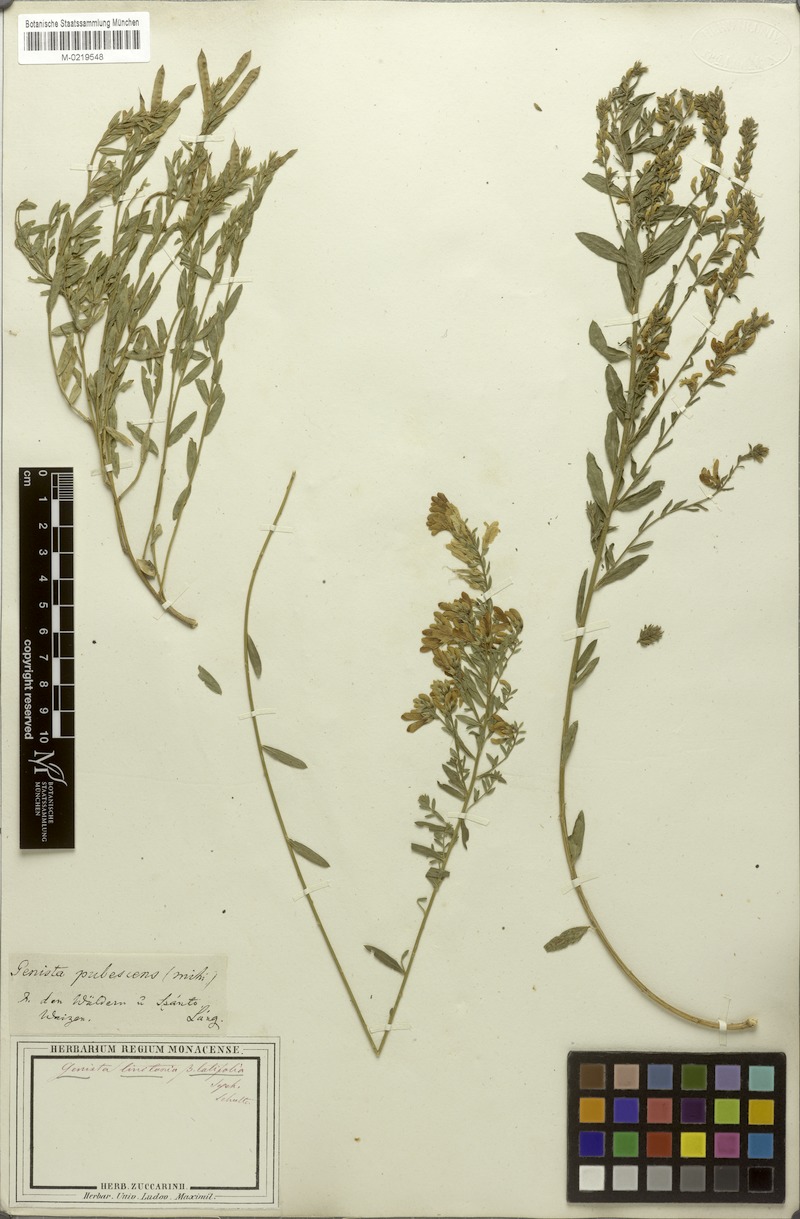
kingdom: Plantae
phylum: Tracheophyta
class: Magnoliopsida
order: Fabales
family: Fabaceae
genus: Genista
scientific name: Genista tinctoria
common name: Dyer's greenweed
